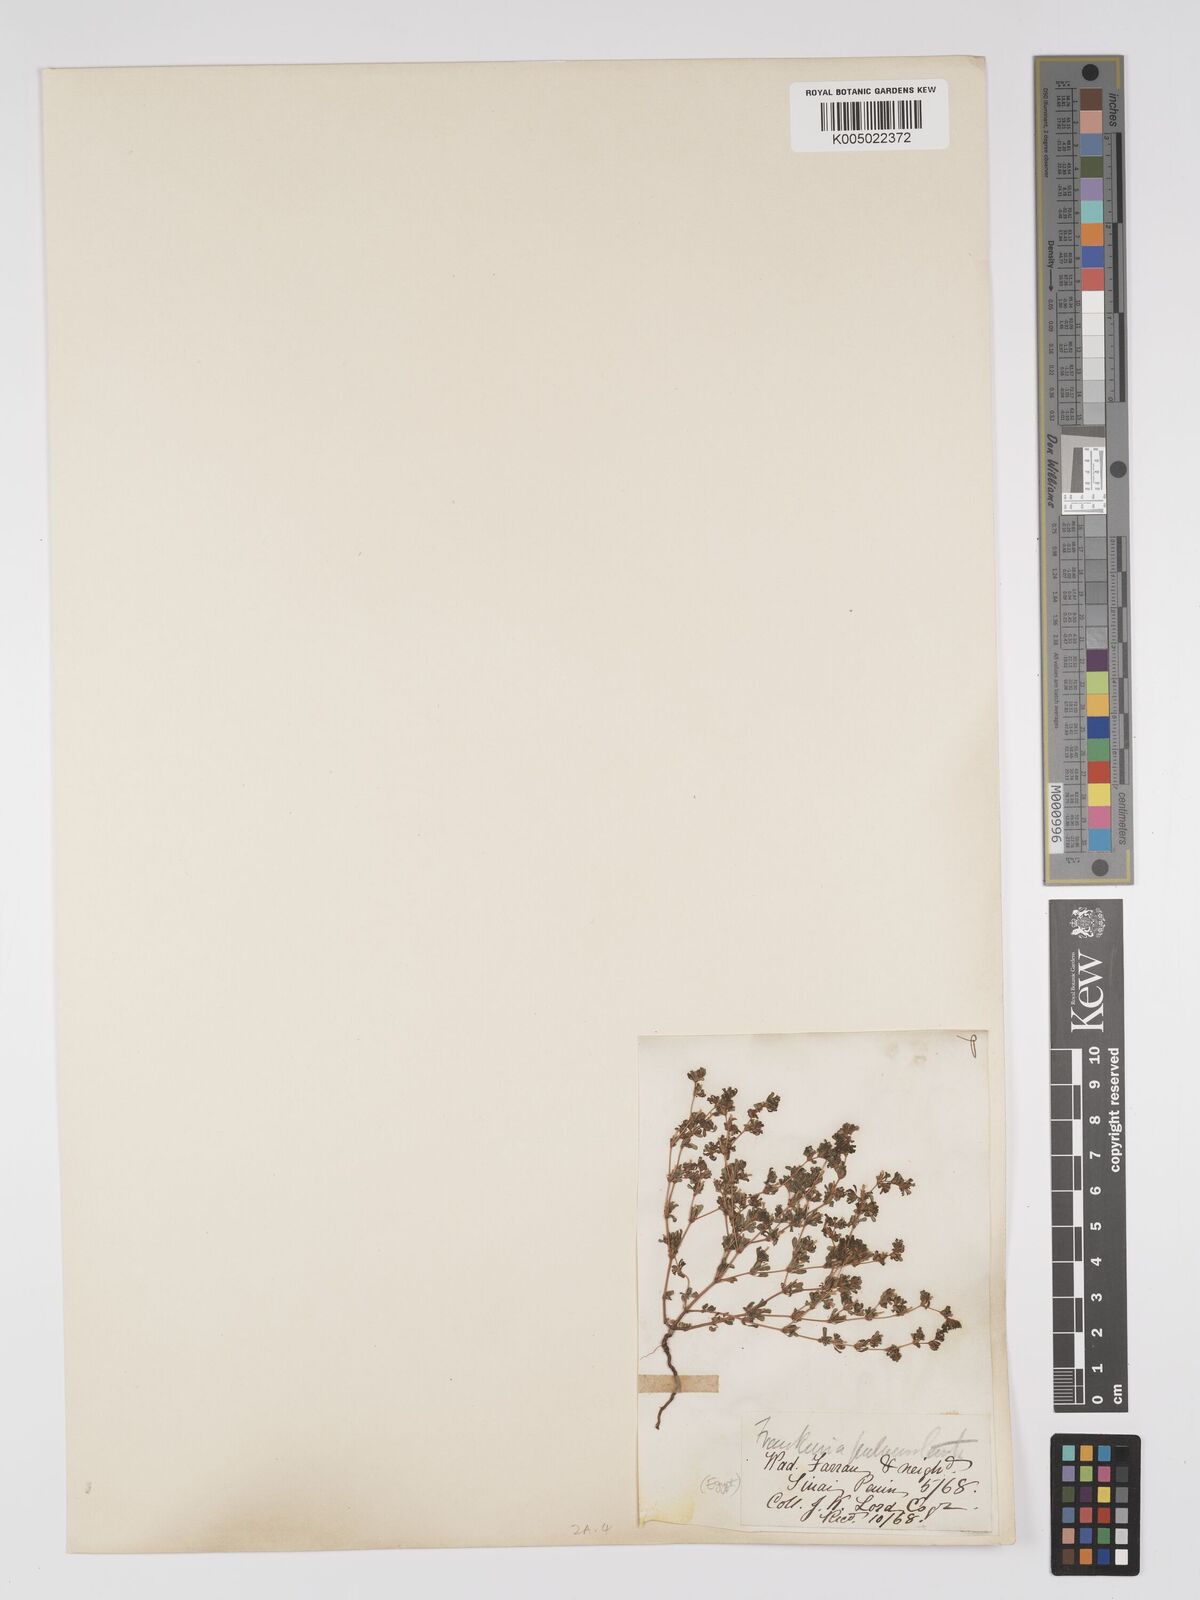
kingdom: Plantae
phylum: Tracheophyta
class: Magnoliopsida
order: Caryophyllales
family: Frankeniaceae
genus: Frankenia
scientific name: Frankenia pulverulenta
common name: European seaheath
